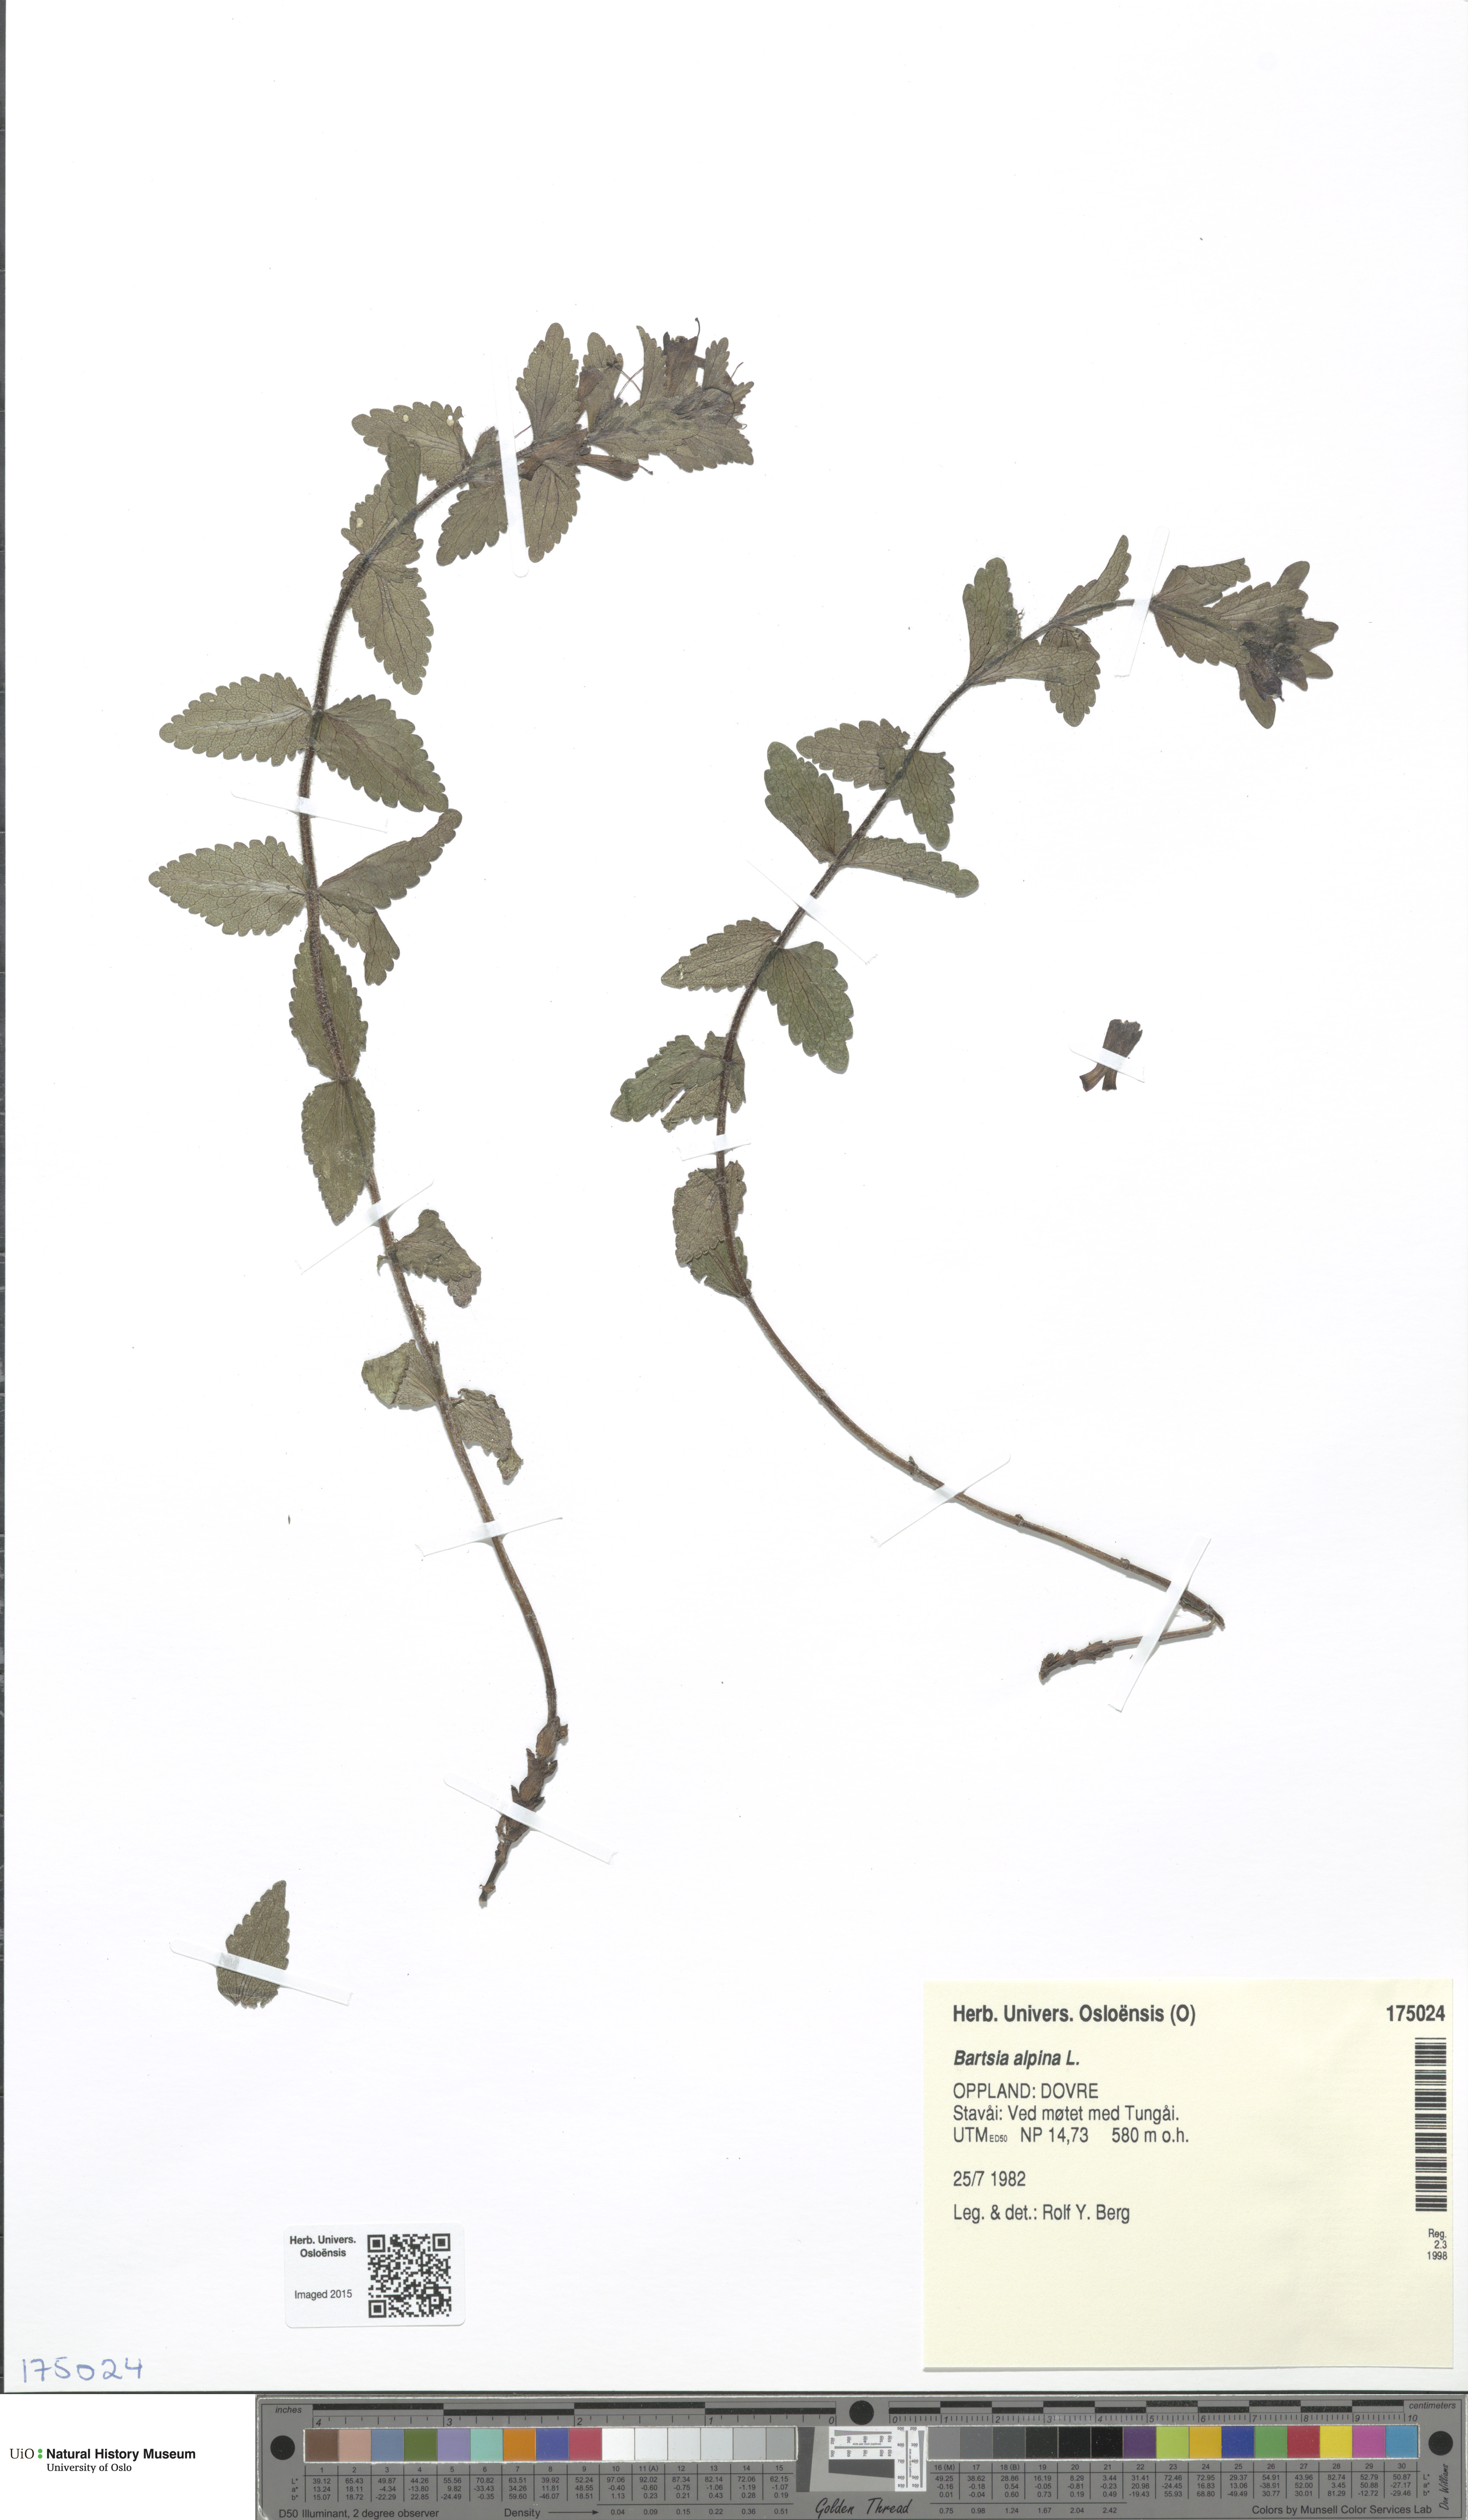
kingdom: Plantae
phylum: Tracheophyta
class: Magnoliopsida
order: Lamiales
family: Orobanchaceae
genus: Bartsia
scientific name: Bartsia alpina
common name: Alpine bartsia
